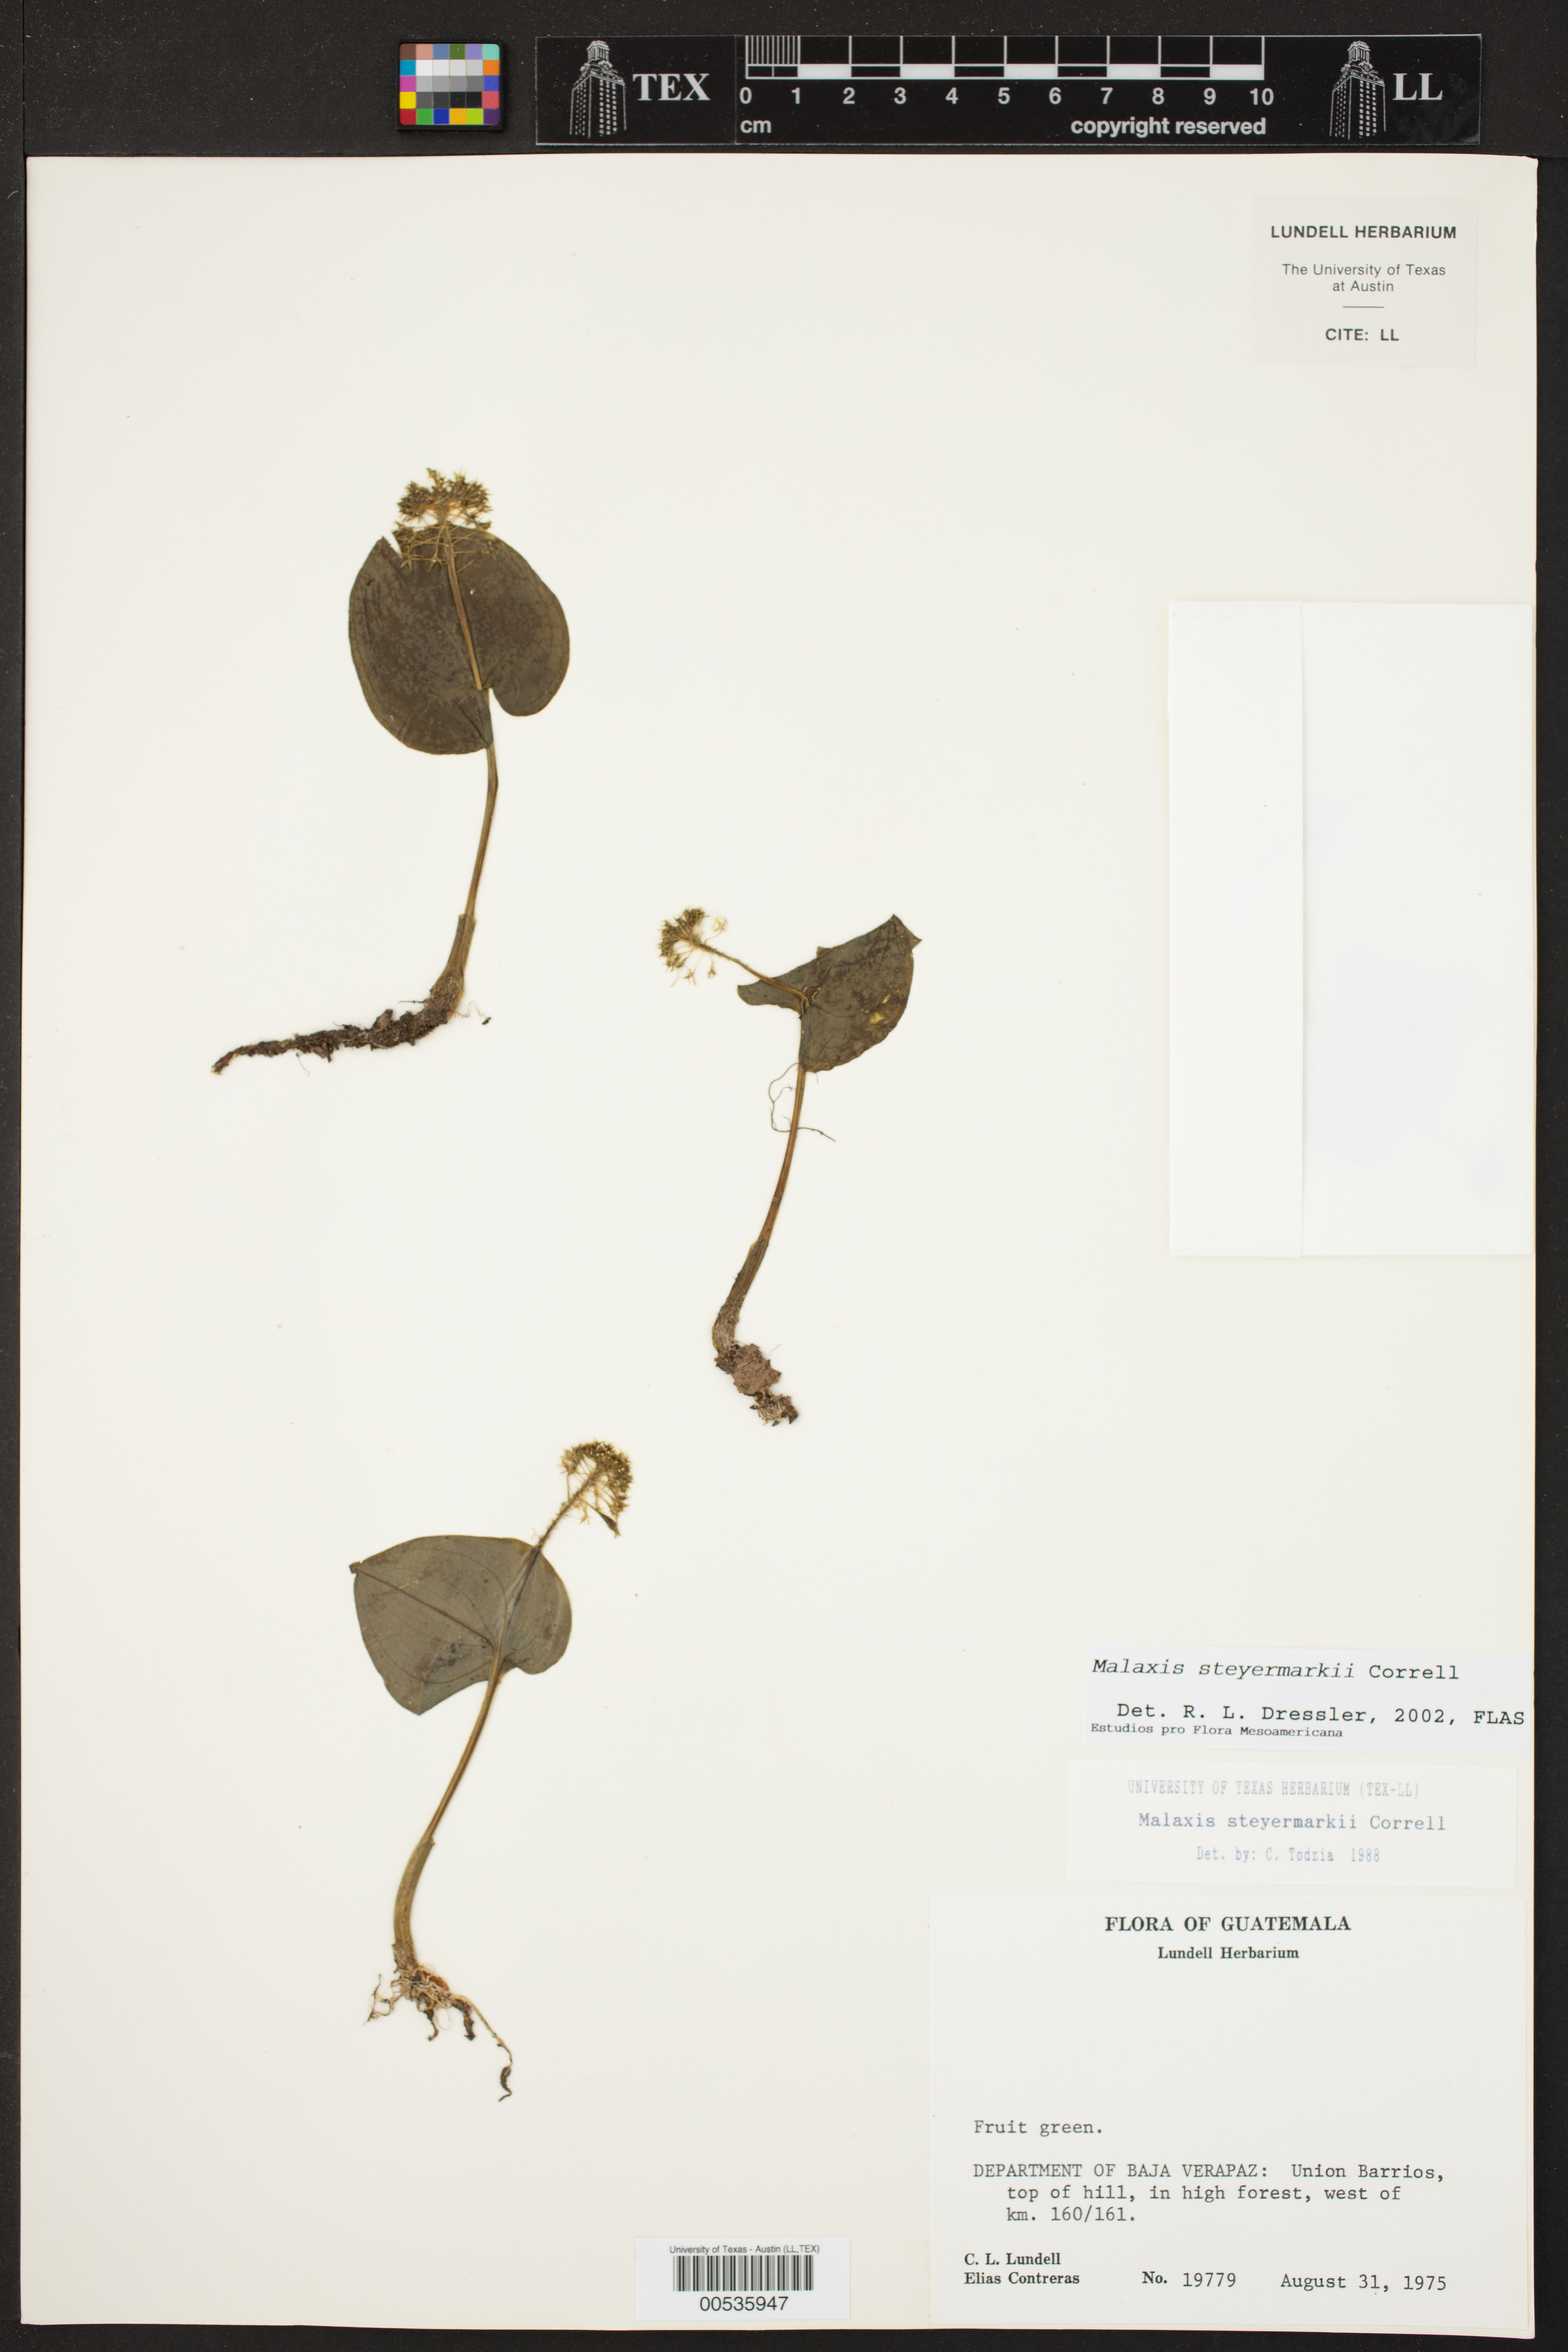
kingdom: Plantae
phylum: Tracheophyta
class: Liliopsida
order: Asparagales
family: Orchidaceae
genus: Malaxis
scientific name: Malaxis steyermarkii
